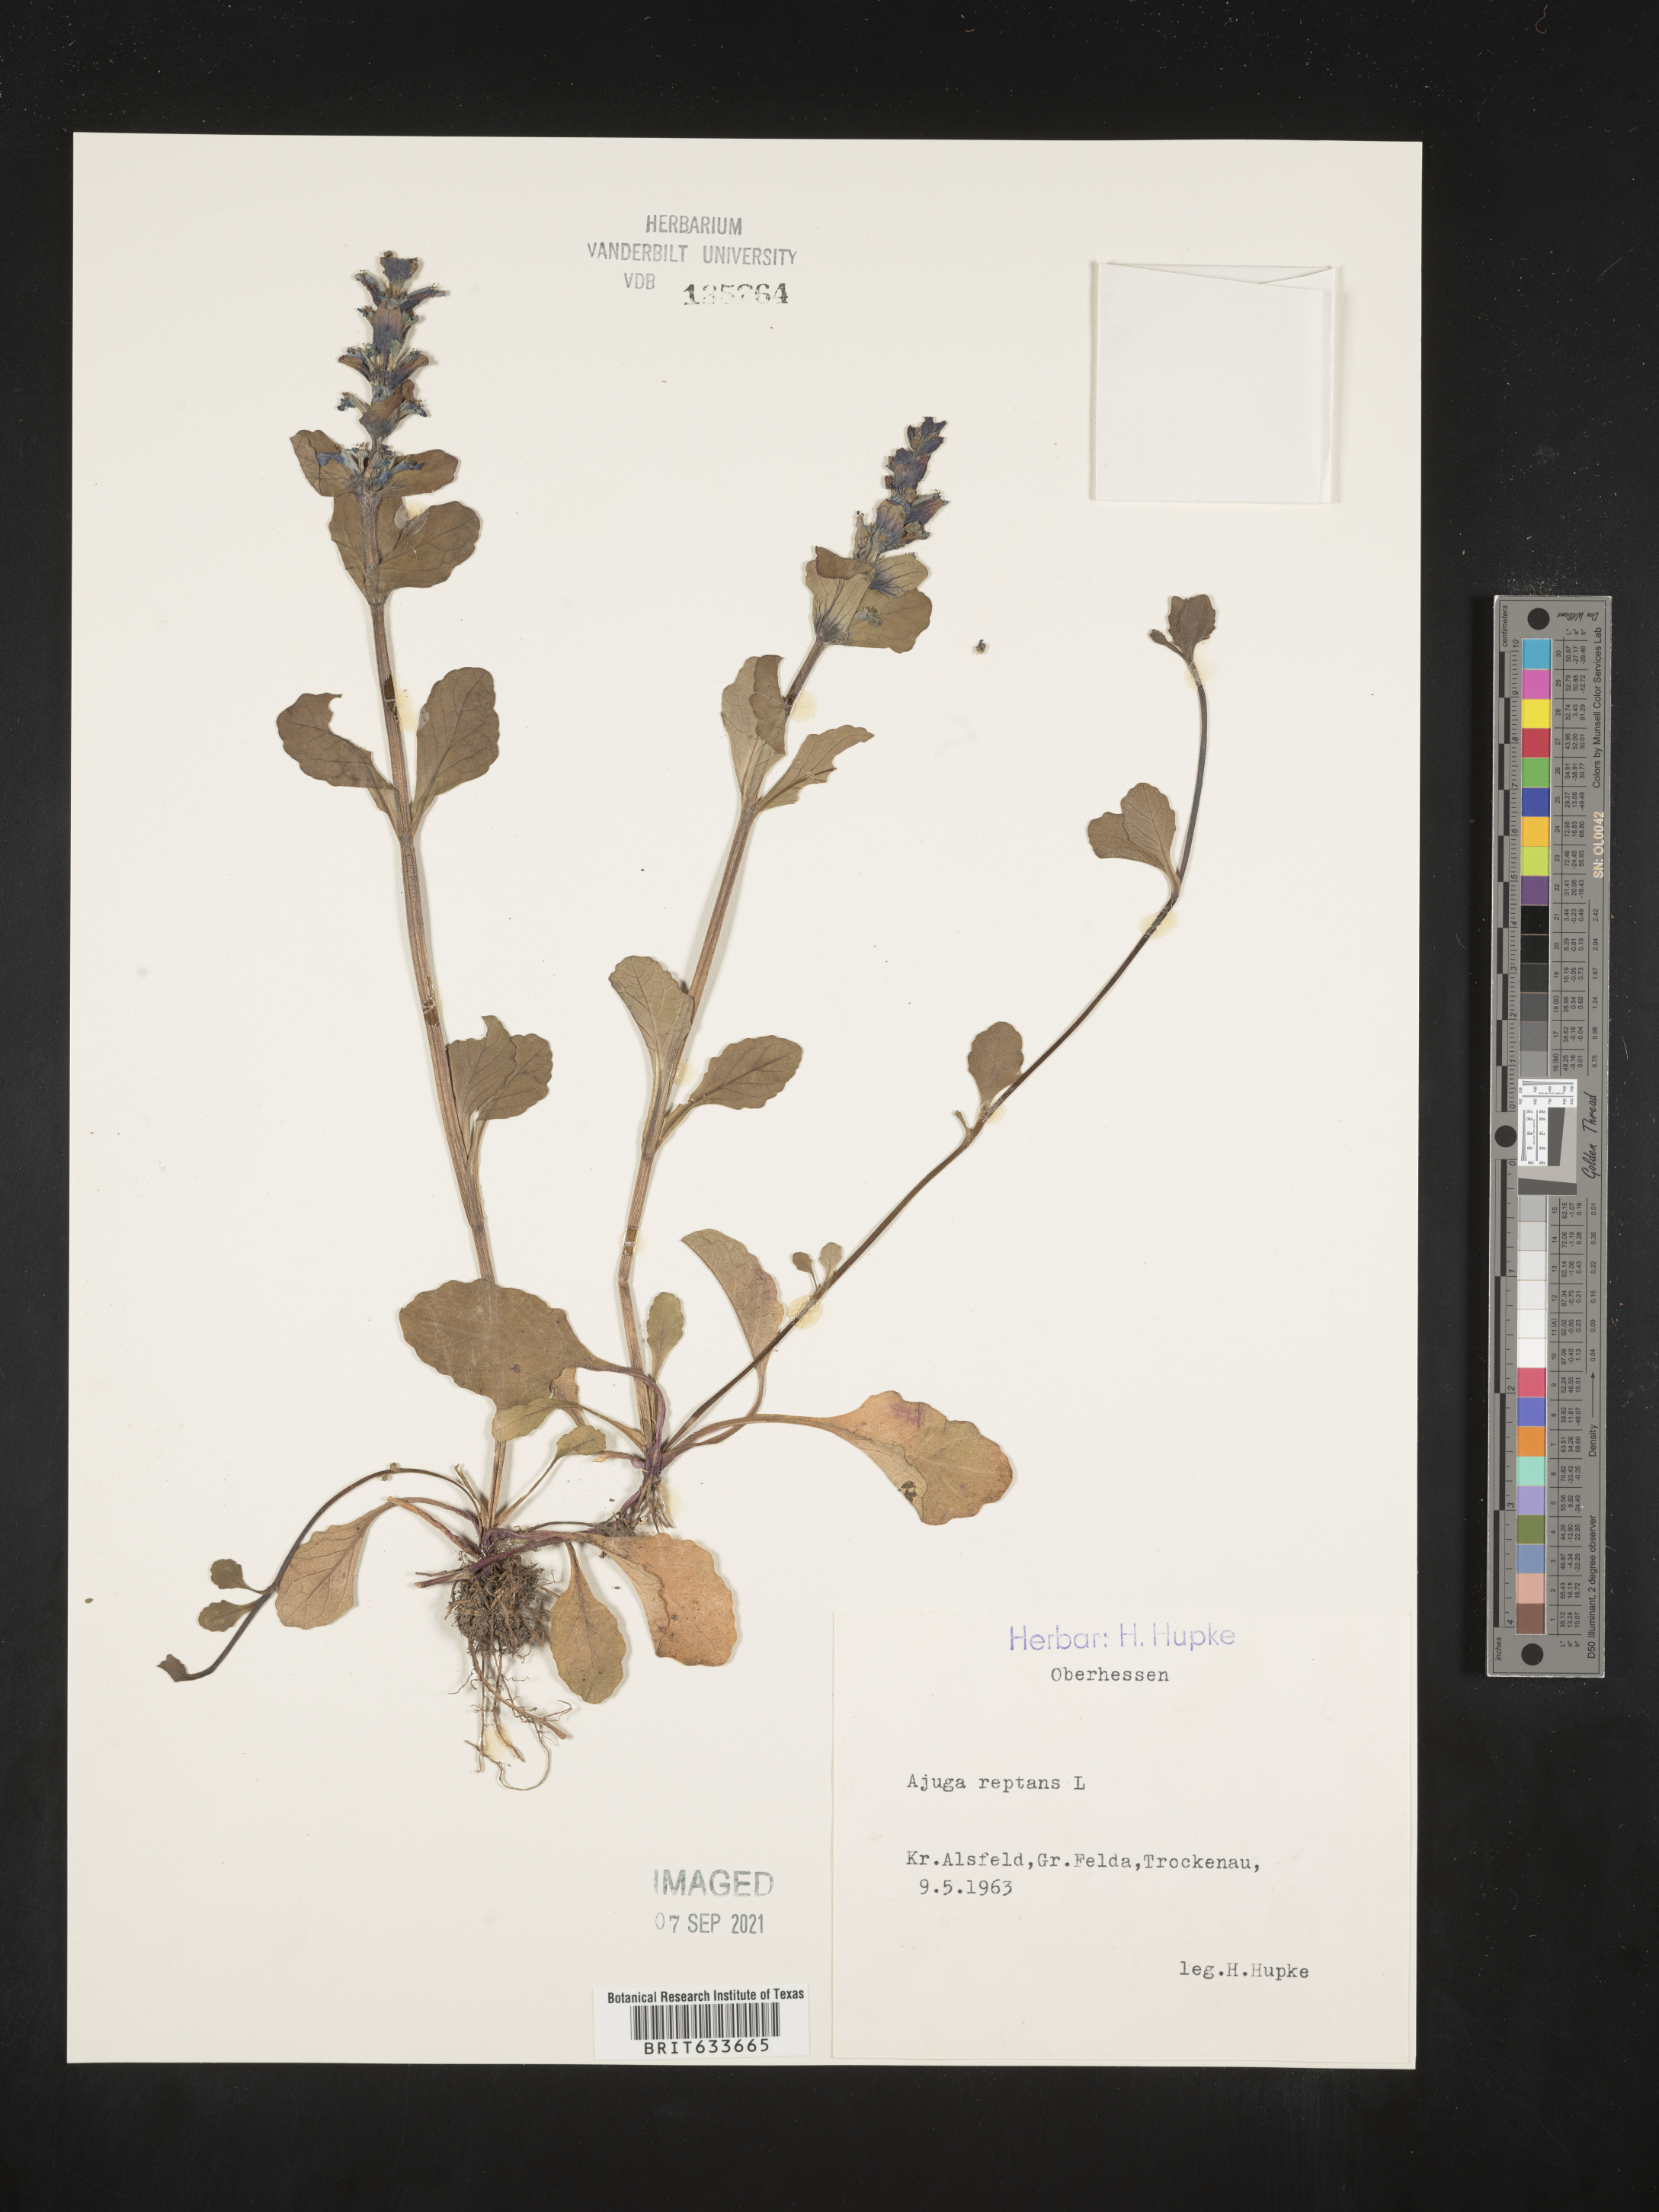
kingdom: Plantae
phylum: Tracheophyta
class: Magnoliopsida
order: Lamiales
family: Lamiaceae
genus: Ajuga
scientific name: Ajuga
